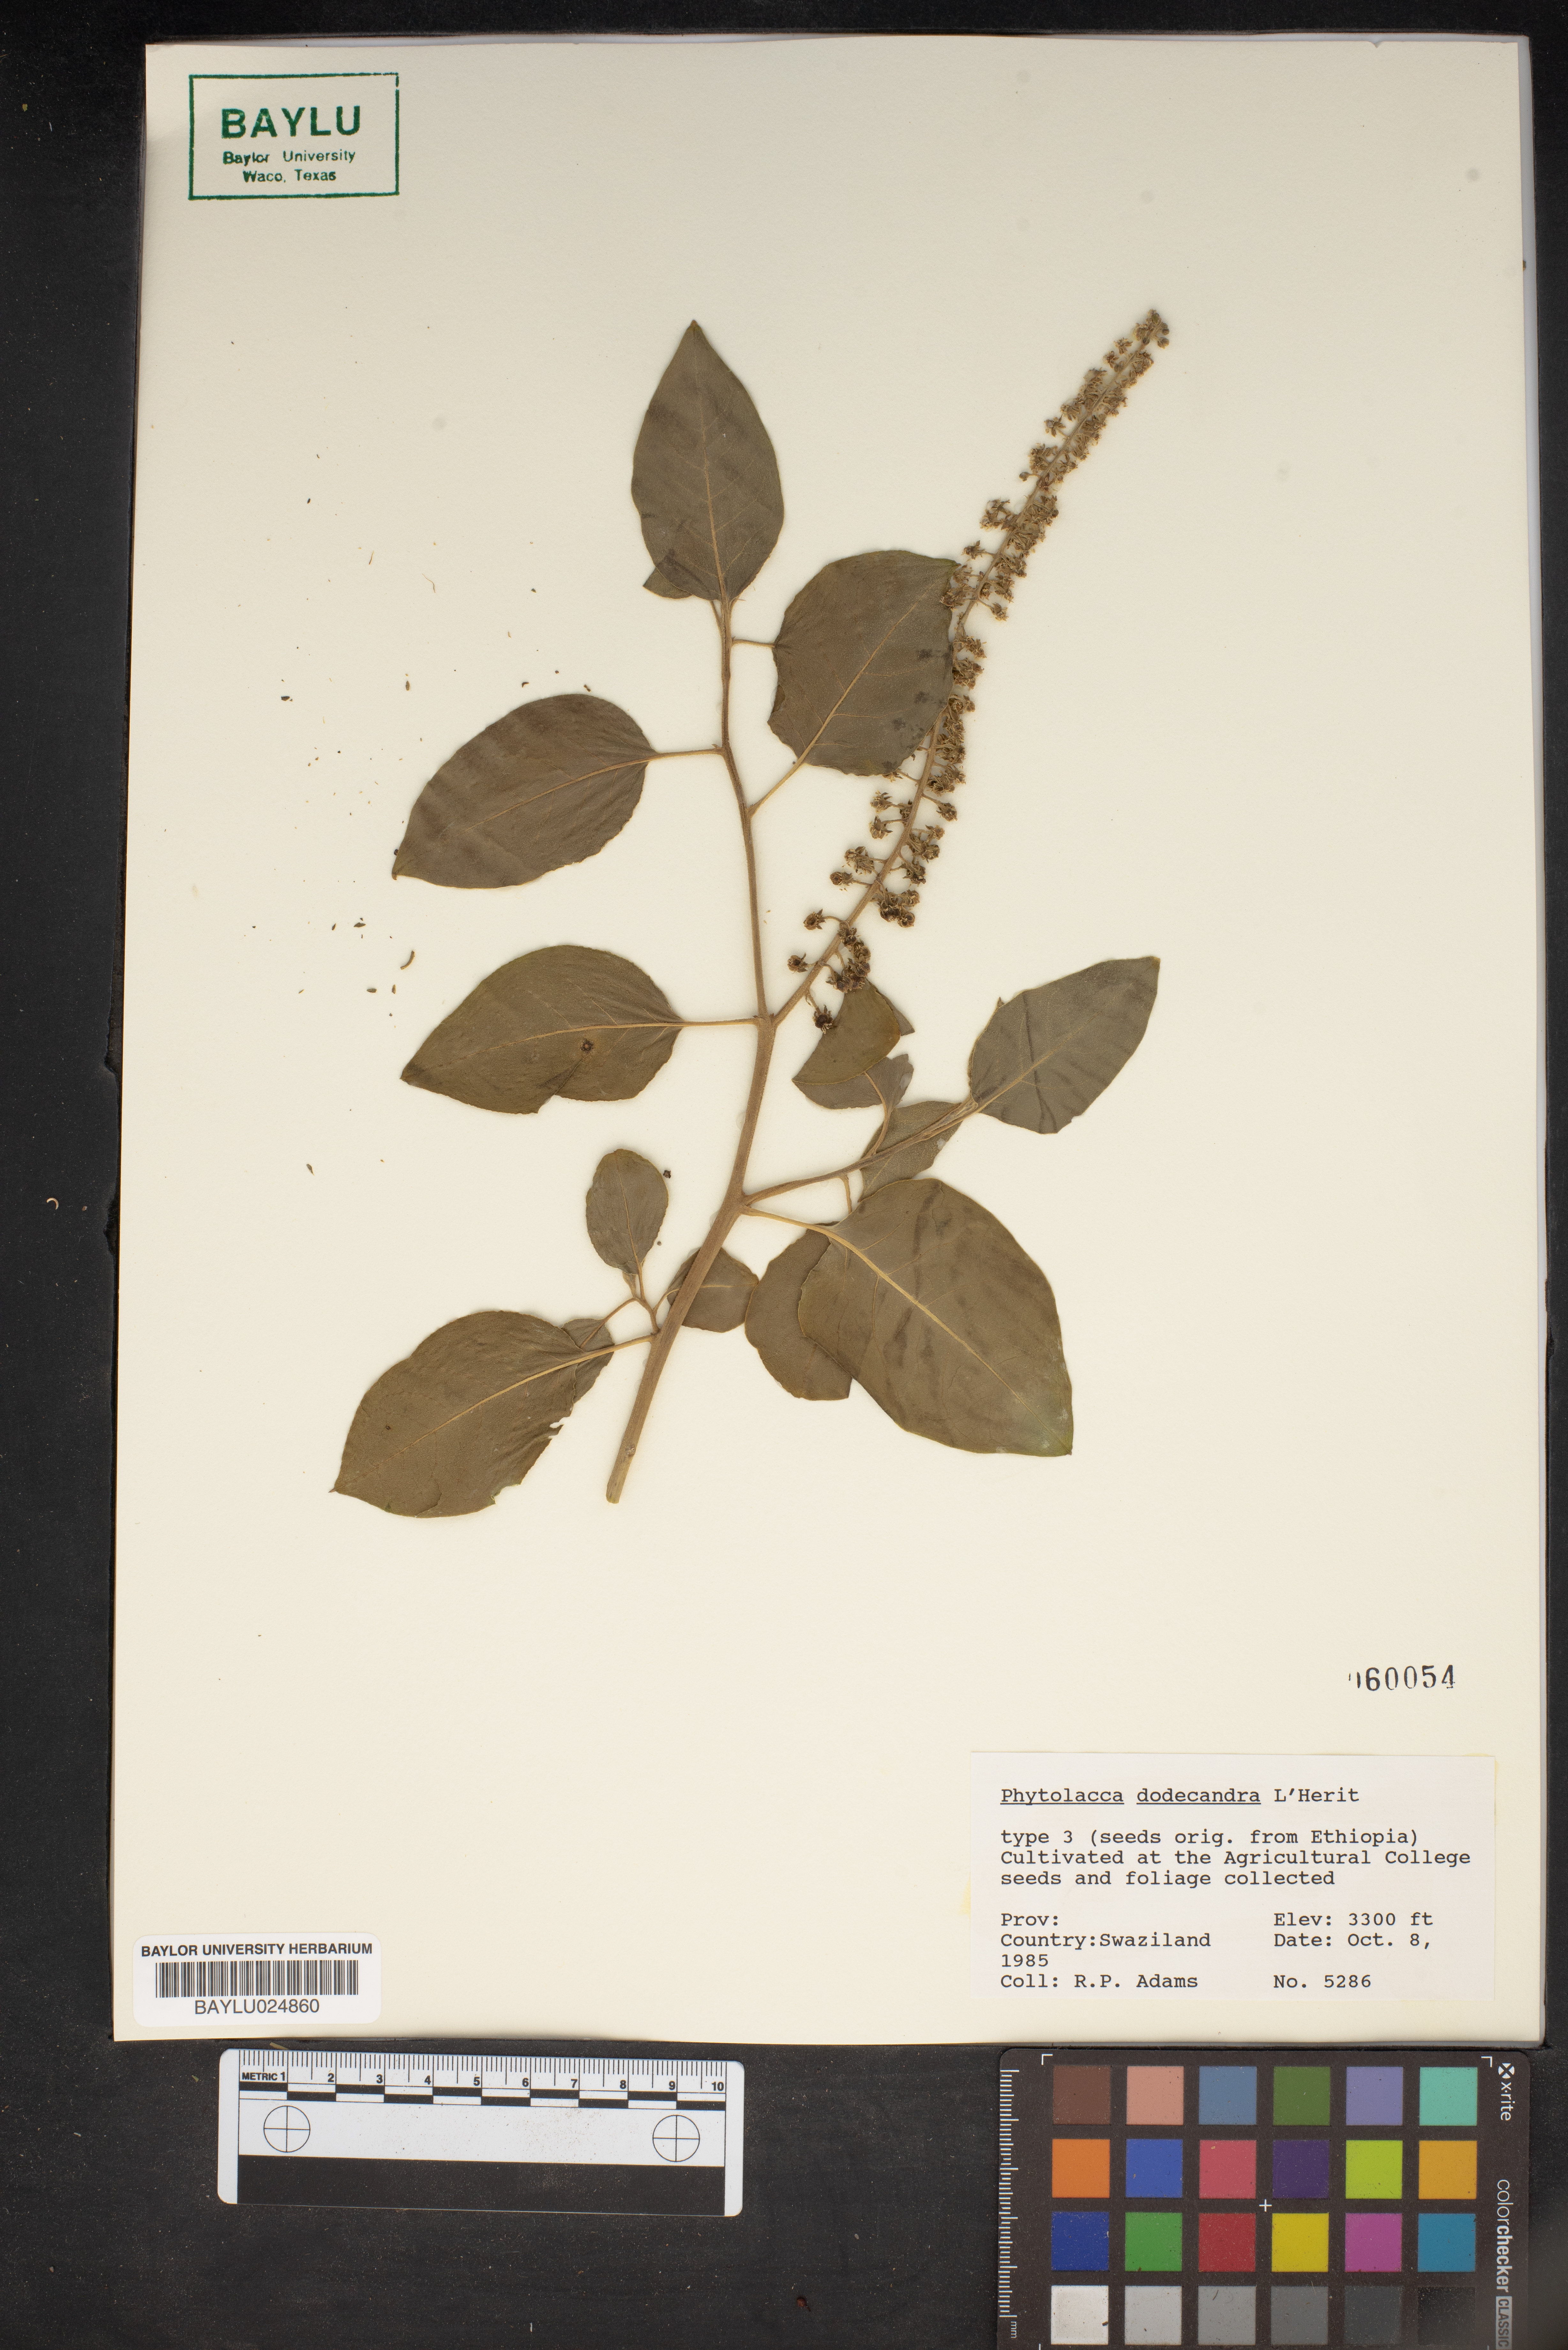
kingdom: Plantae
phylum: Tracheophyta
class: Magnoliopsida
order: Caryophyllales
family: Phytolaccaceae
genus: Phytolacca
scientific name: Phytolacca dodecandra
